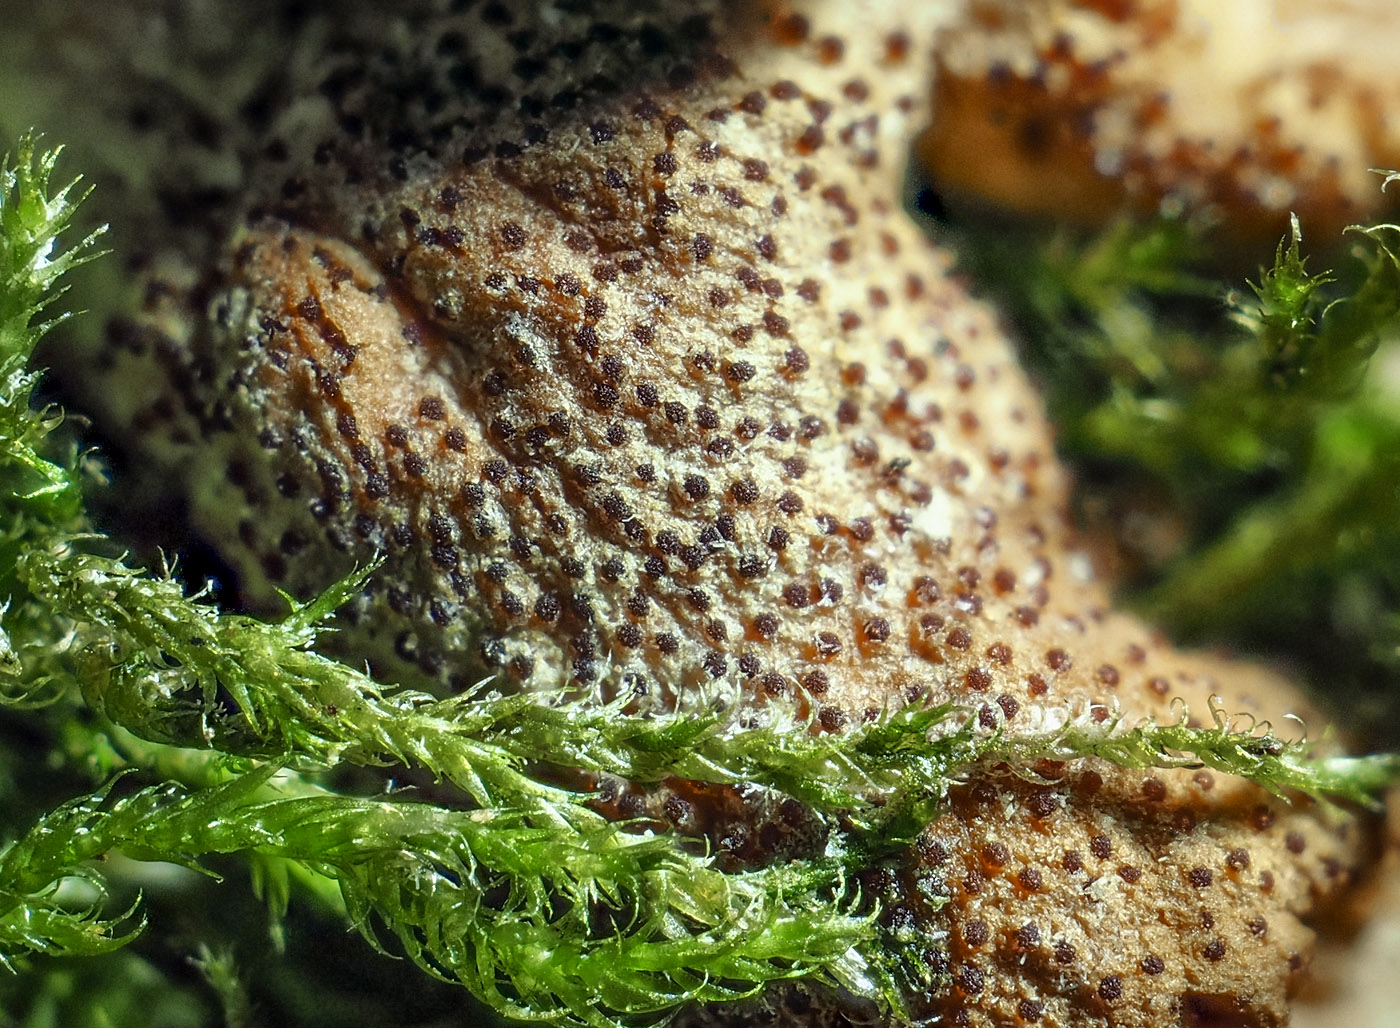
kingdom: Fungi
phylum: Ascomycota
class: Sordariomycetes
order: Hypocreales
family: Hypocreaceae
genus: Hypocreopsis
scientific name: Hypocreopsis rhododendri
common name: Hazel gloves
